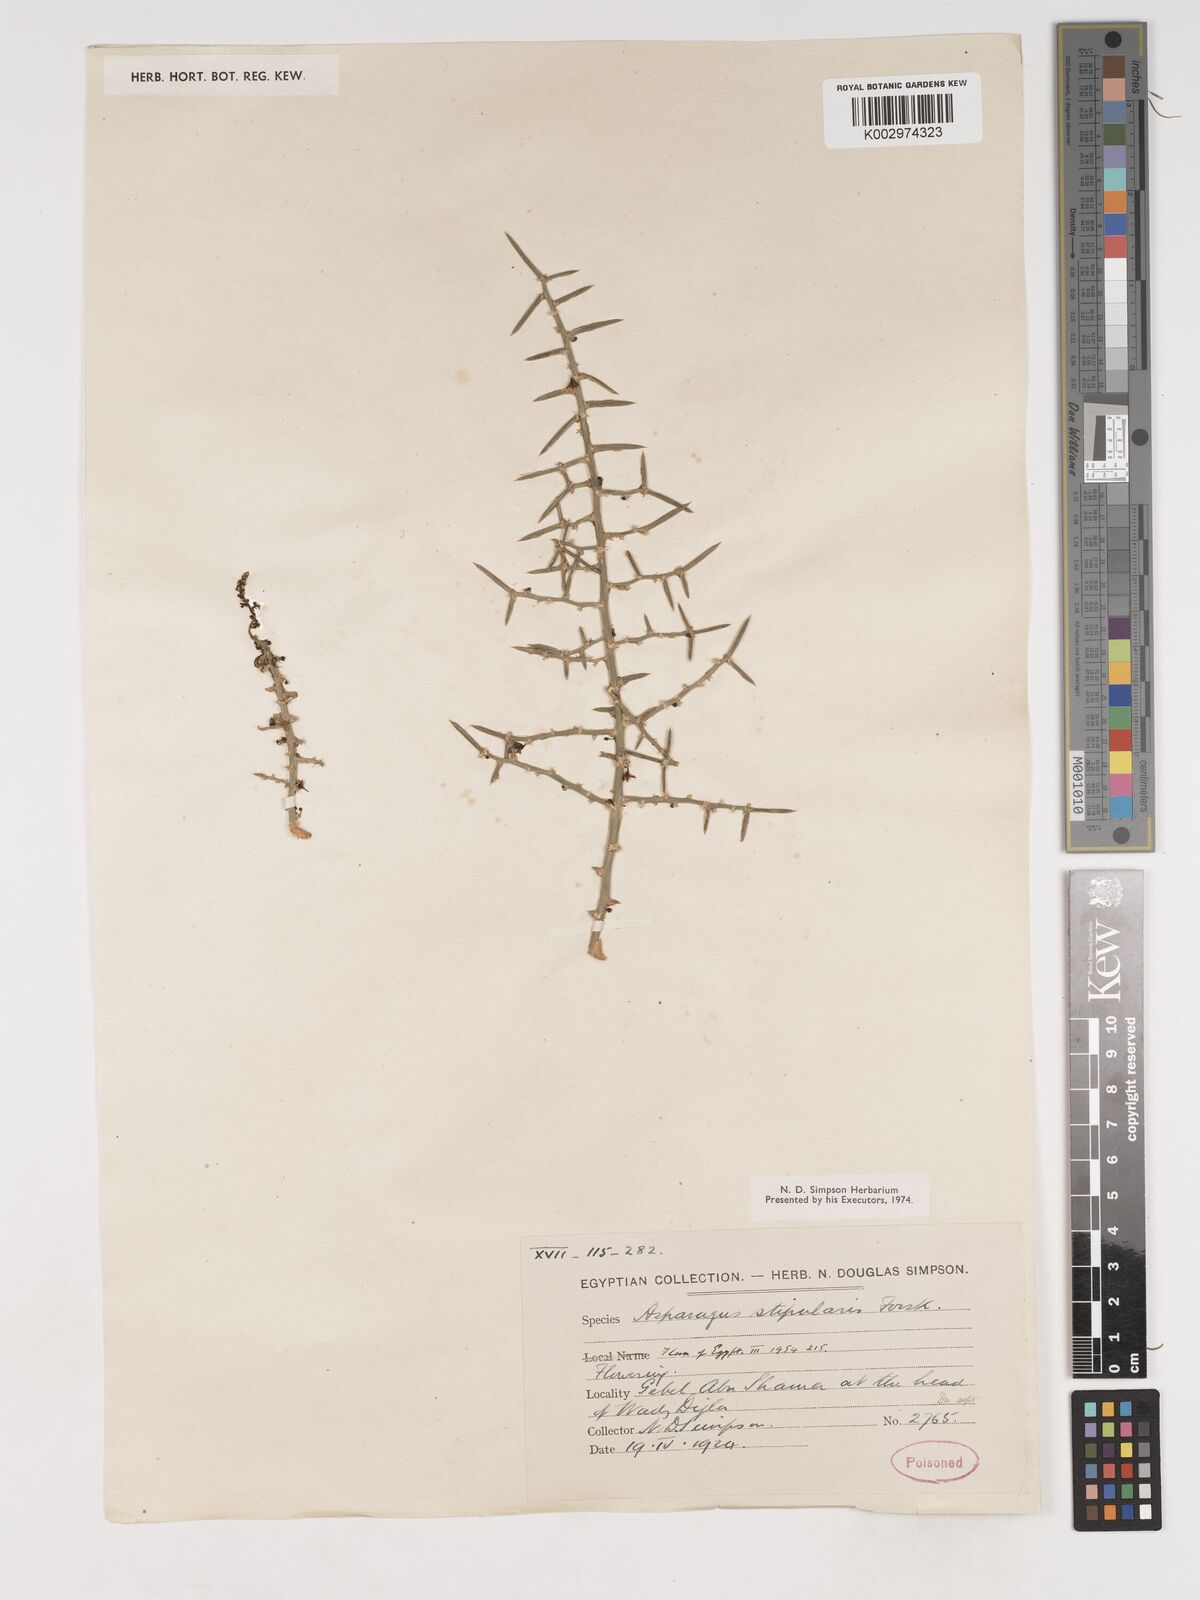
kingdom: Plantae
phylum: Tracheophyta
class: Liliopsida
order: Asparagales
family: Asparagaceae
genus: Asparagus
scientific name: Asparagus aphyllus
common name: Mediterranean asparagus
